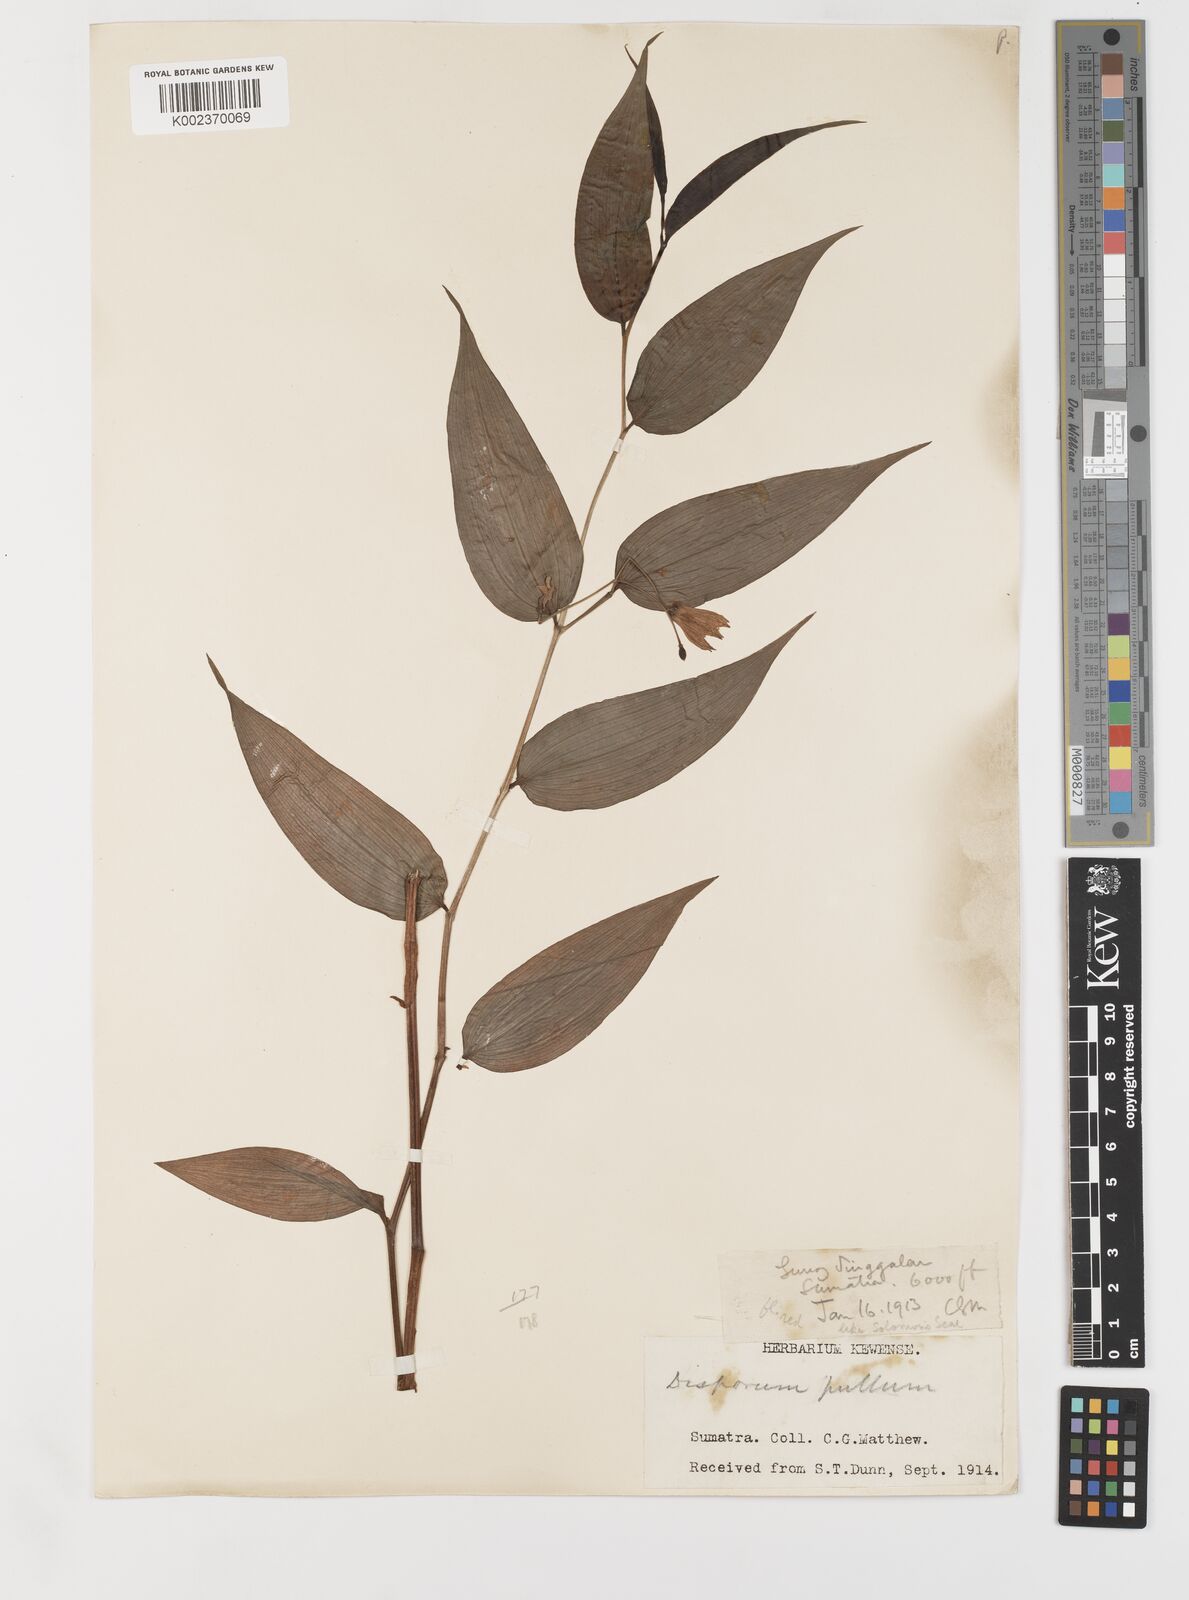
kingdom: Plantae
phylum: Tracheophyta
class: Liliopsida
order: Liliales
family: Colchicaceae
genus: Disporum
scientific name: Disporum cantoniense
